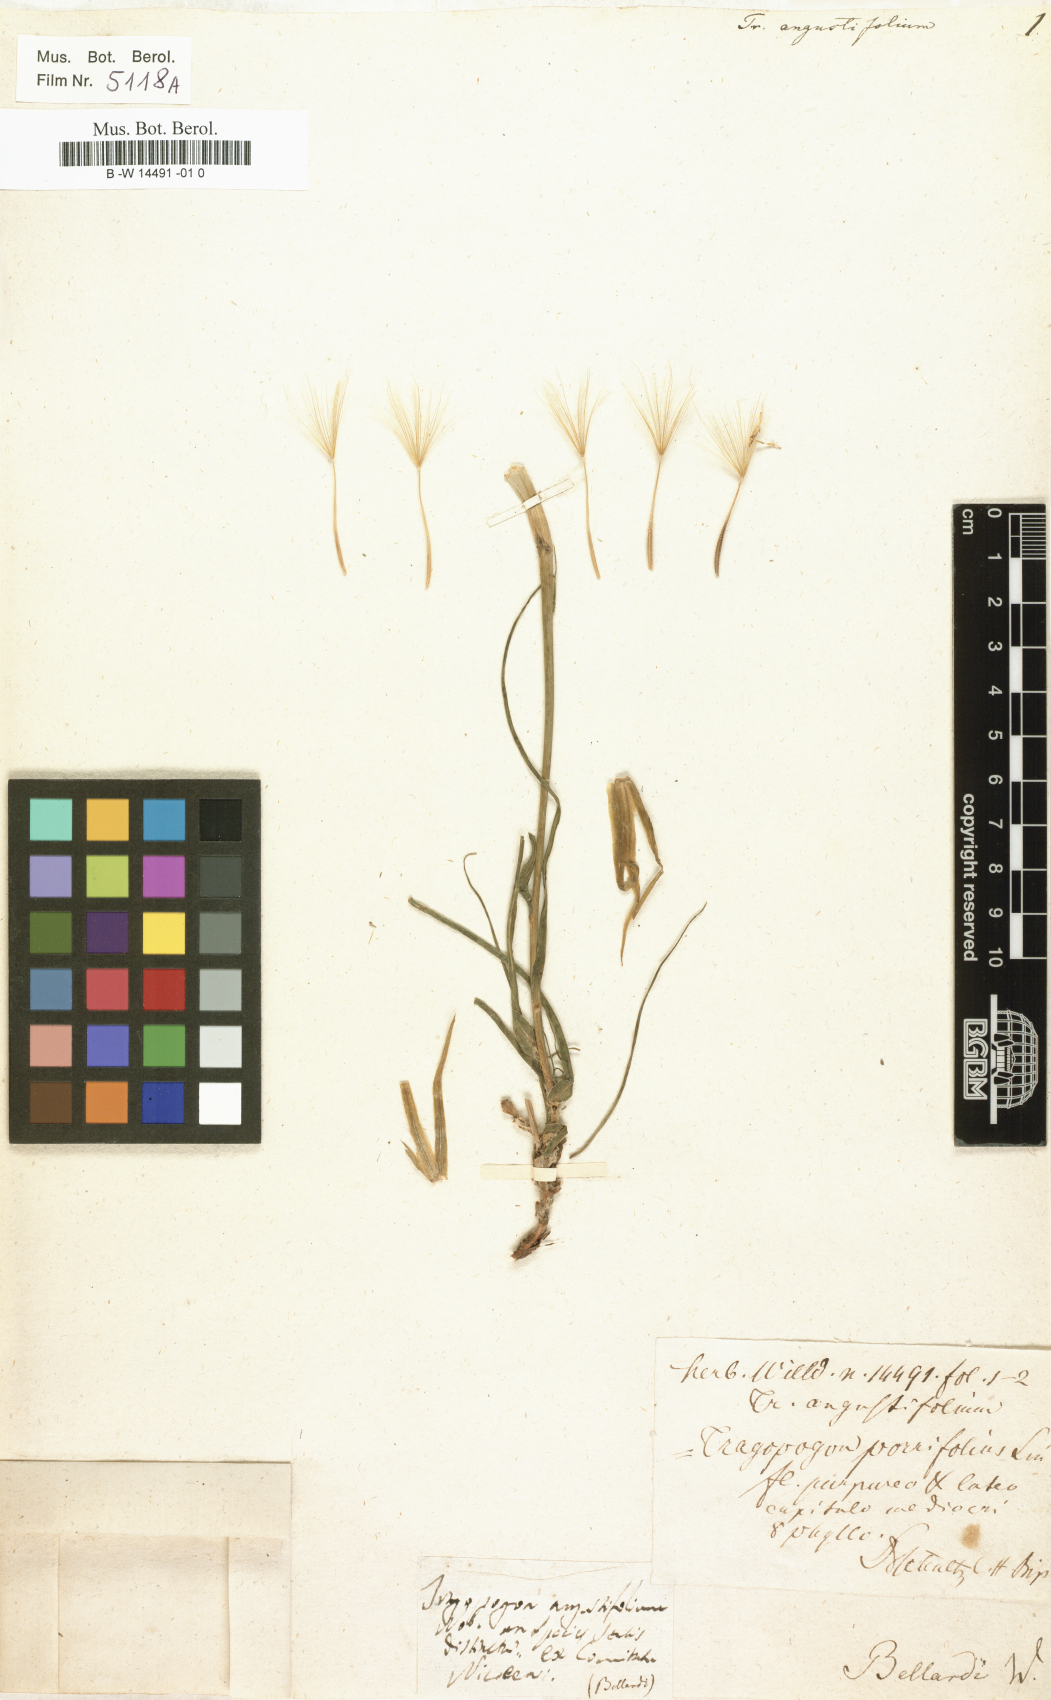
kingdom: Plantae
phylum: Tracheophyta
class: Magnoliopsida
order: Asterales
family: Asteraceae
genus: Tragopogon
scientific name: Tragopogon angustifolius
